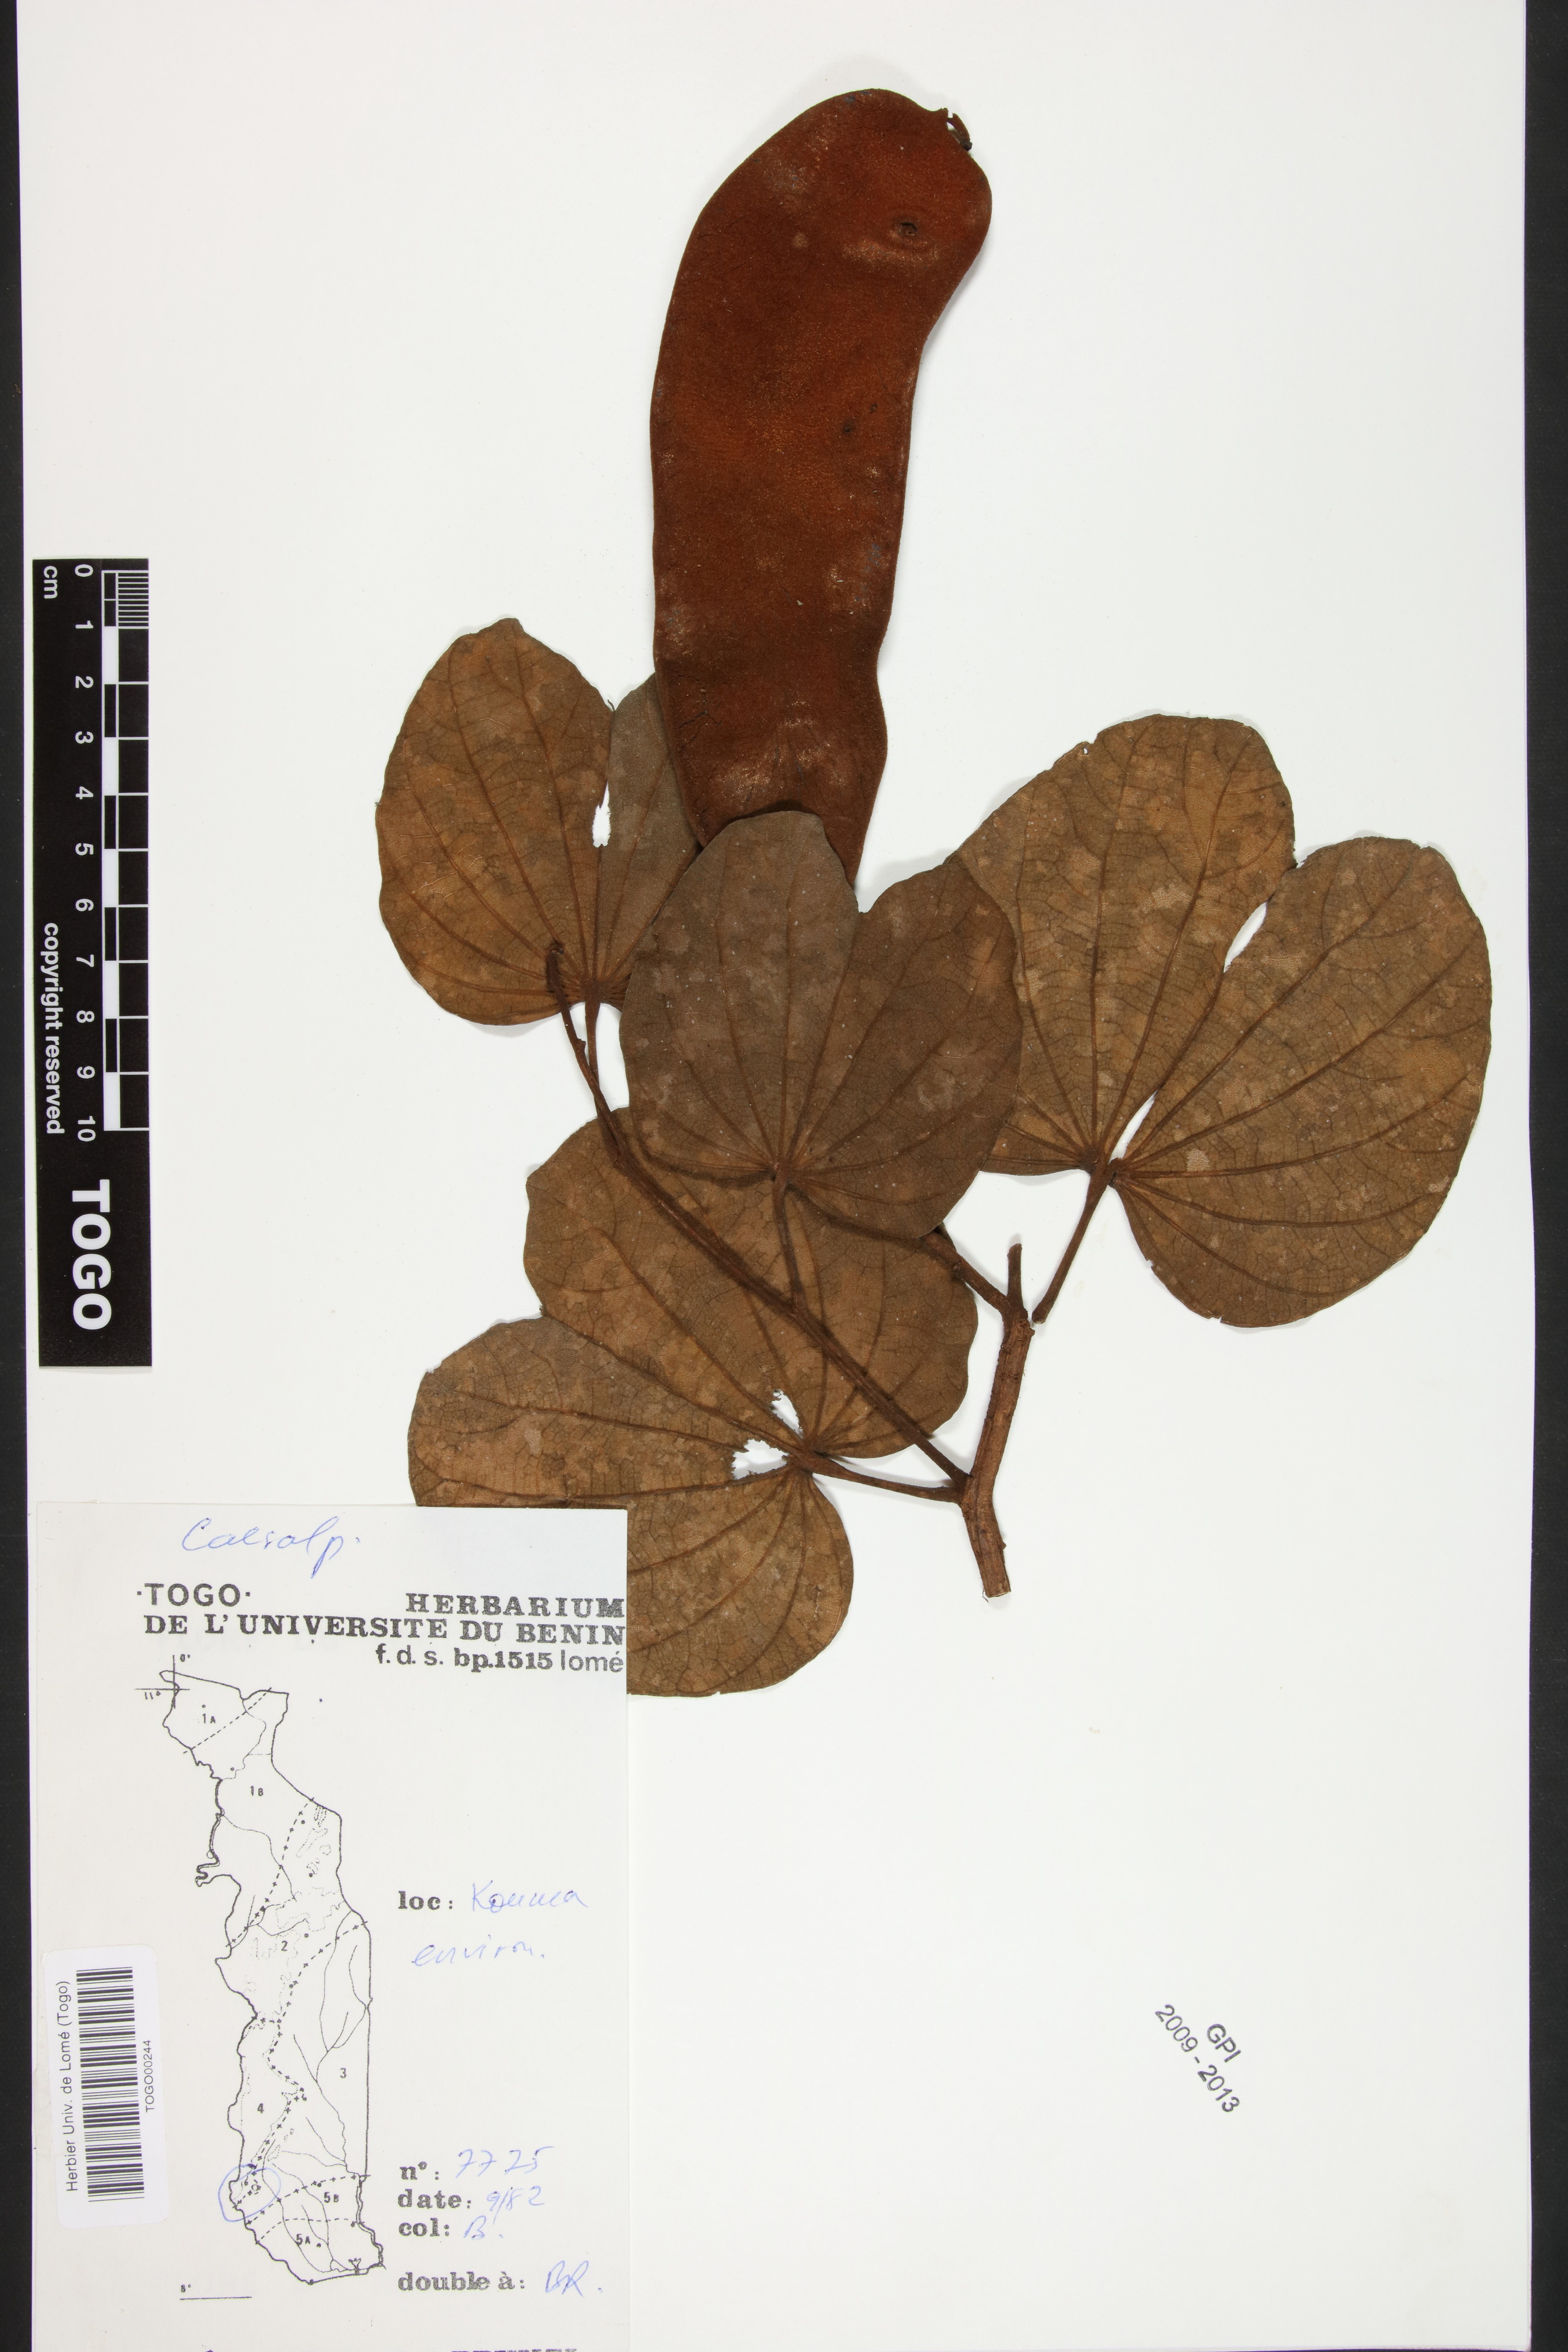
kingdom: Plantae
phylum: Tracheophyta
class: Magnoliopsida
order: Fabales
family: Fabaceae
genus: Piliostigma
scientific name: Piliostigma thonningii
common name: Kao
